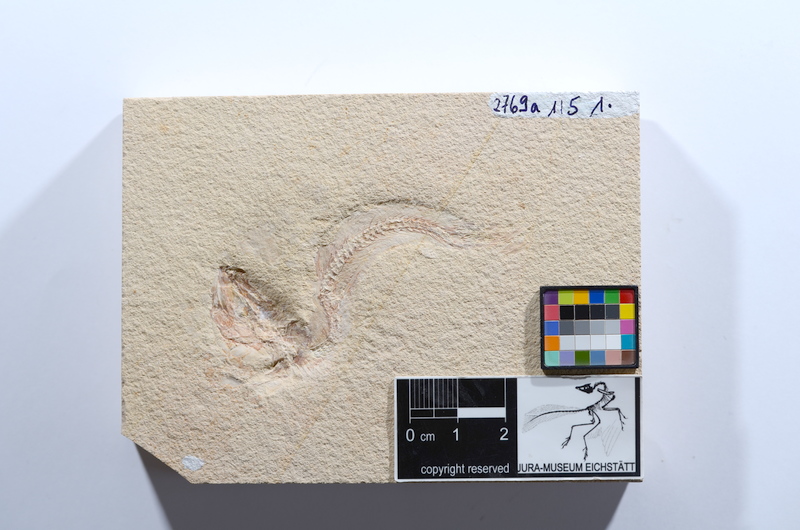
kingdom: Animalia
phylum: Chordata
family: Ascalaboidae
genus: Tharsis
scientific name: Tharsis dubius
